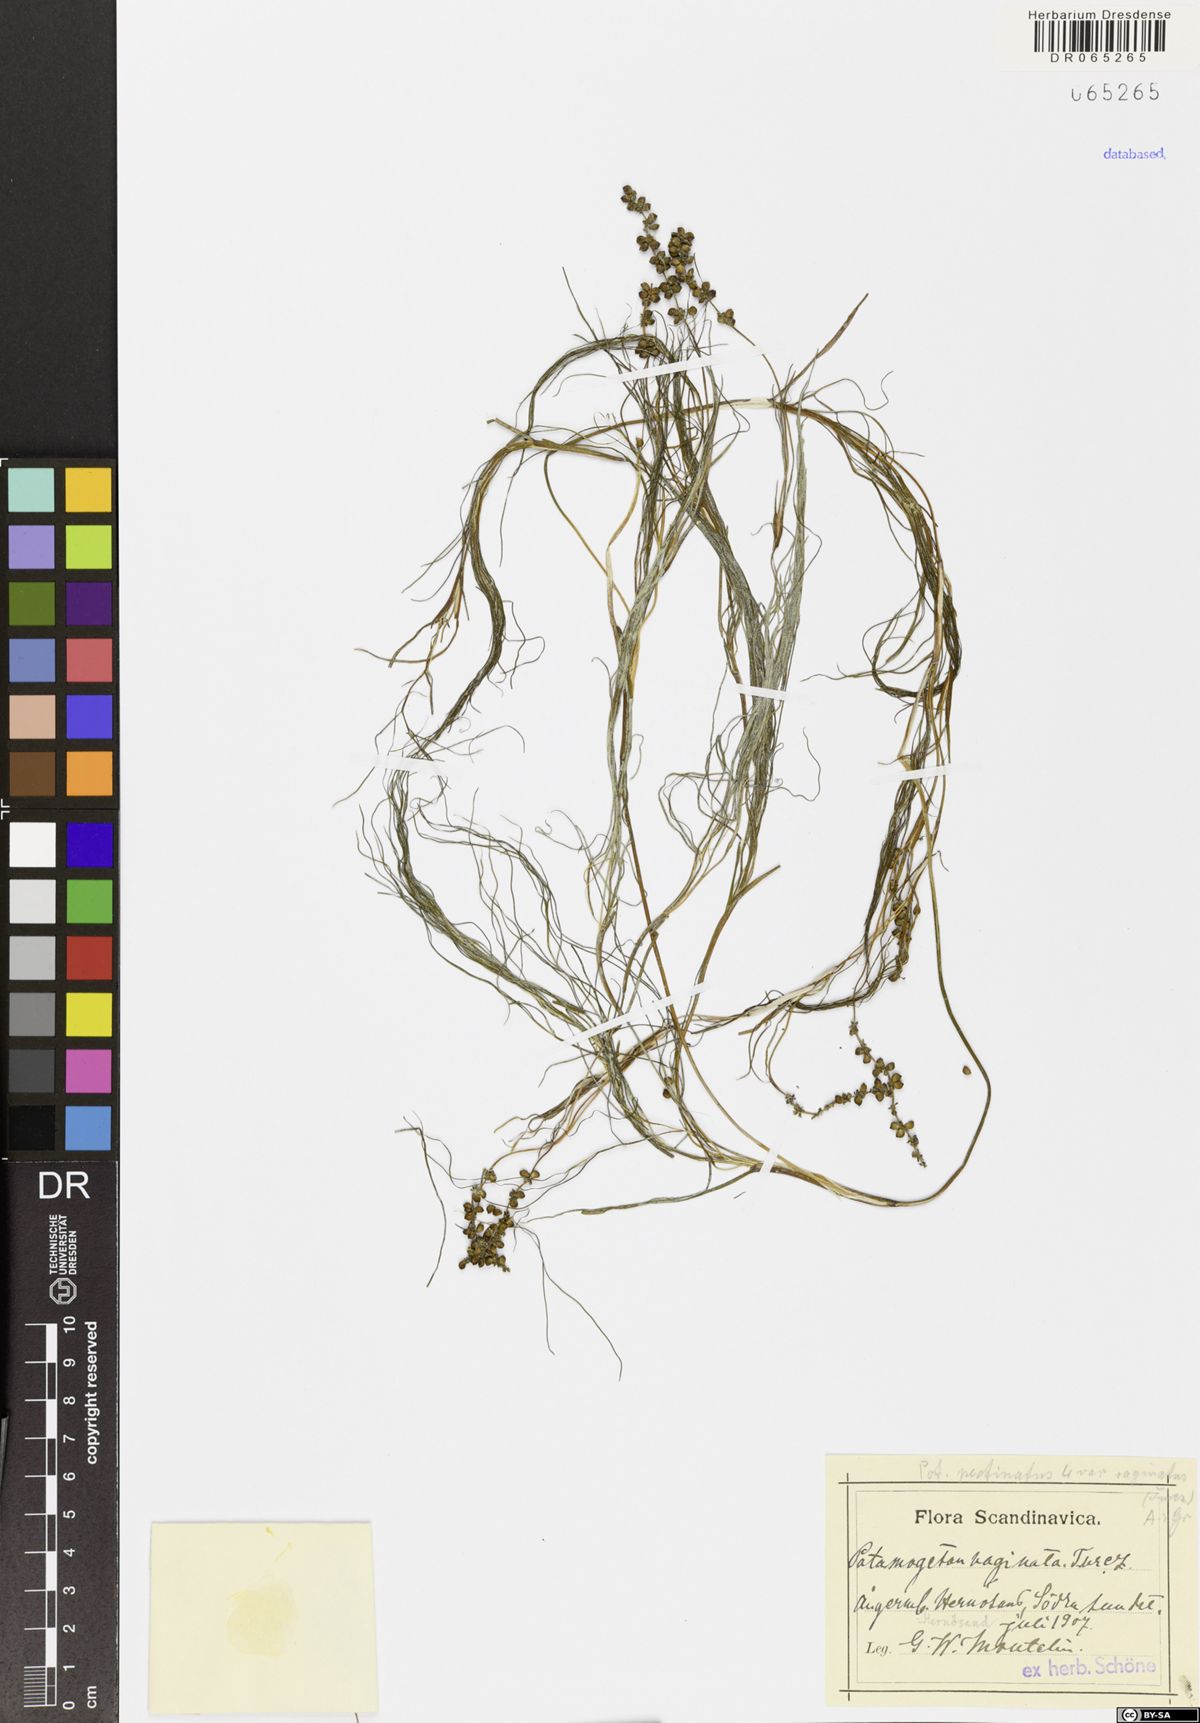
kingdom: Plantae
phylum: Tracheophyta
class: Liliopsida
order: Alismatales
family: Potamogetonaceae
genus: Stuckenia
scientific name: Stuckenia vaginata
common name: Big-sheathed pondweed
